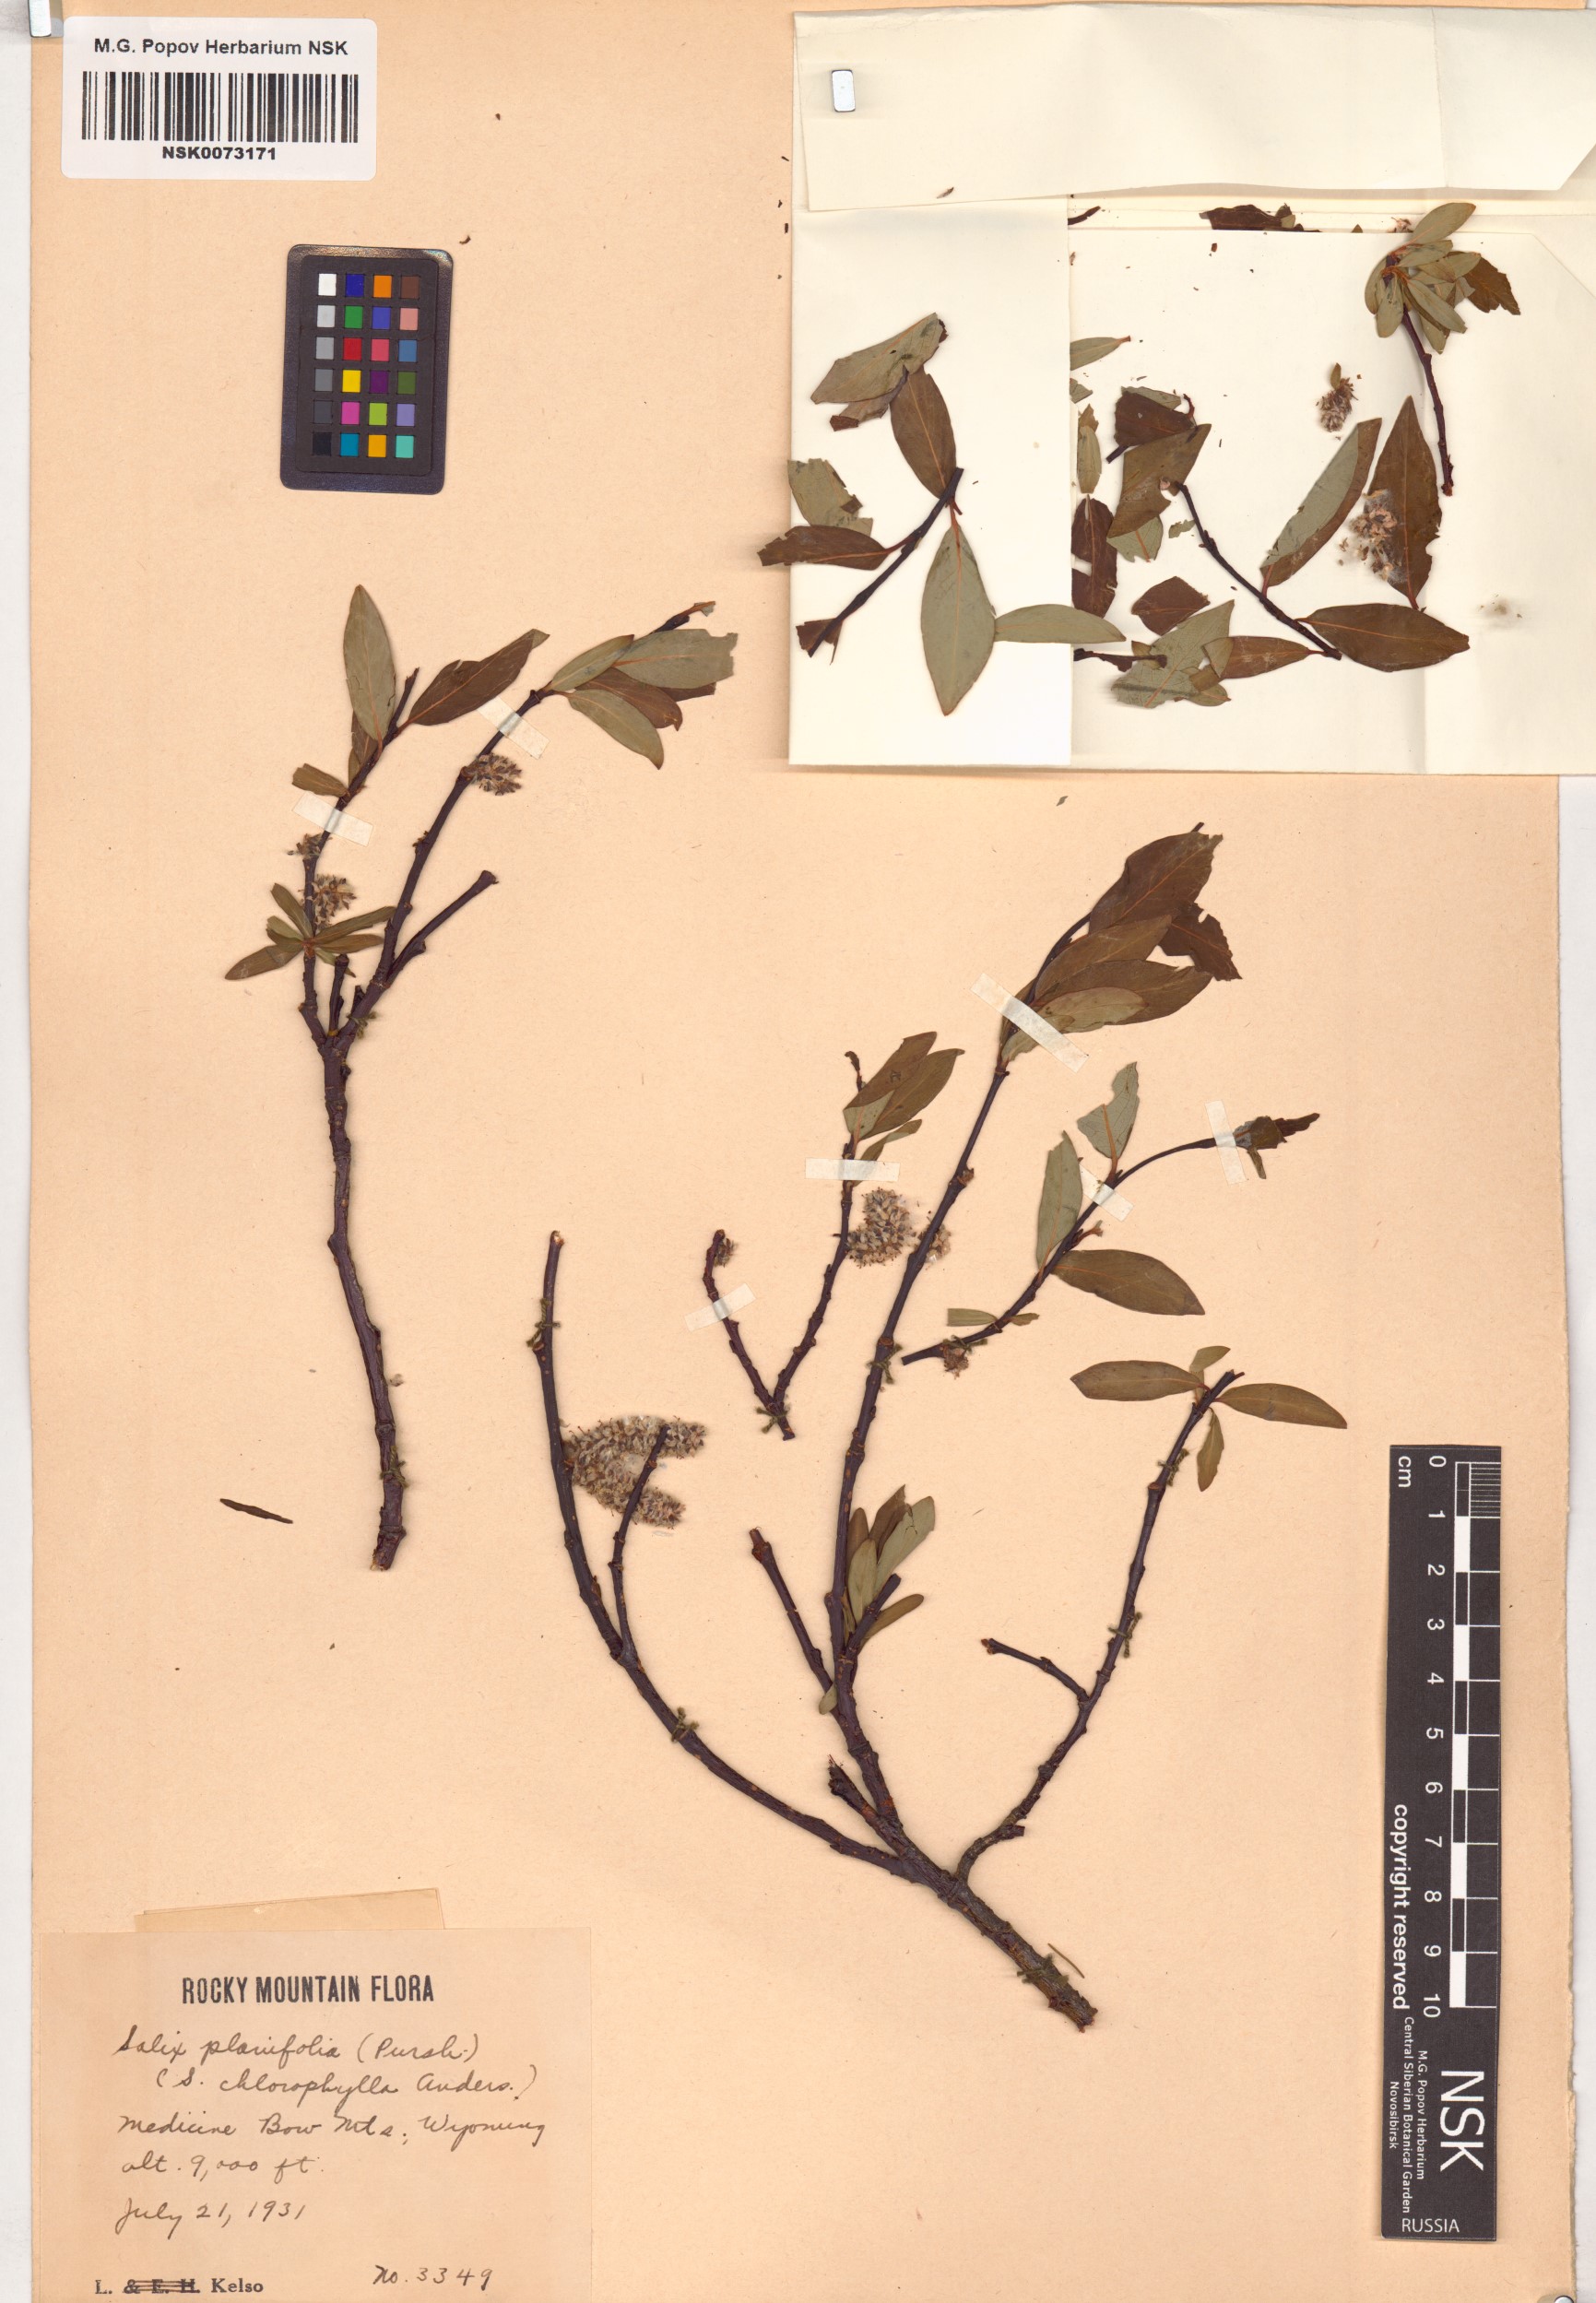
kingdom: Plantae
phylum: Tracheophyta
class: Magnoliopsida
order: Malpighiales
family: Salicaceae
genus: Salix
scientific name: Salix planifolia
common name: Mountain willow
